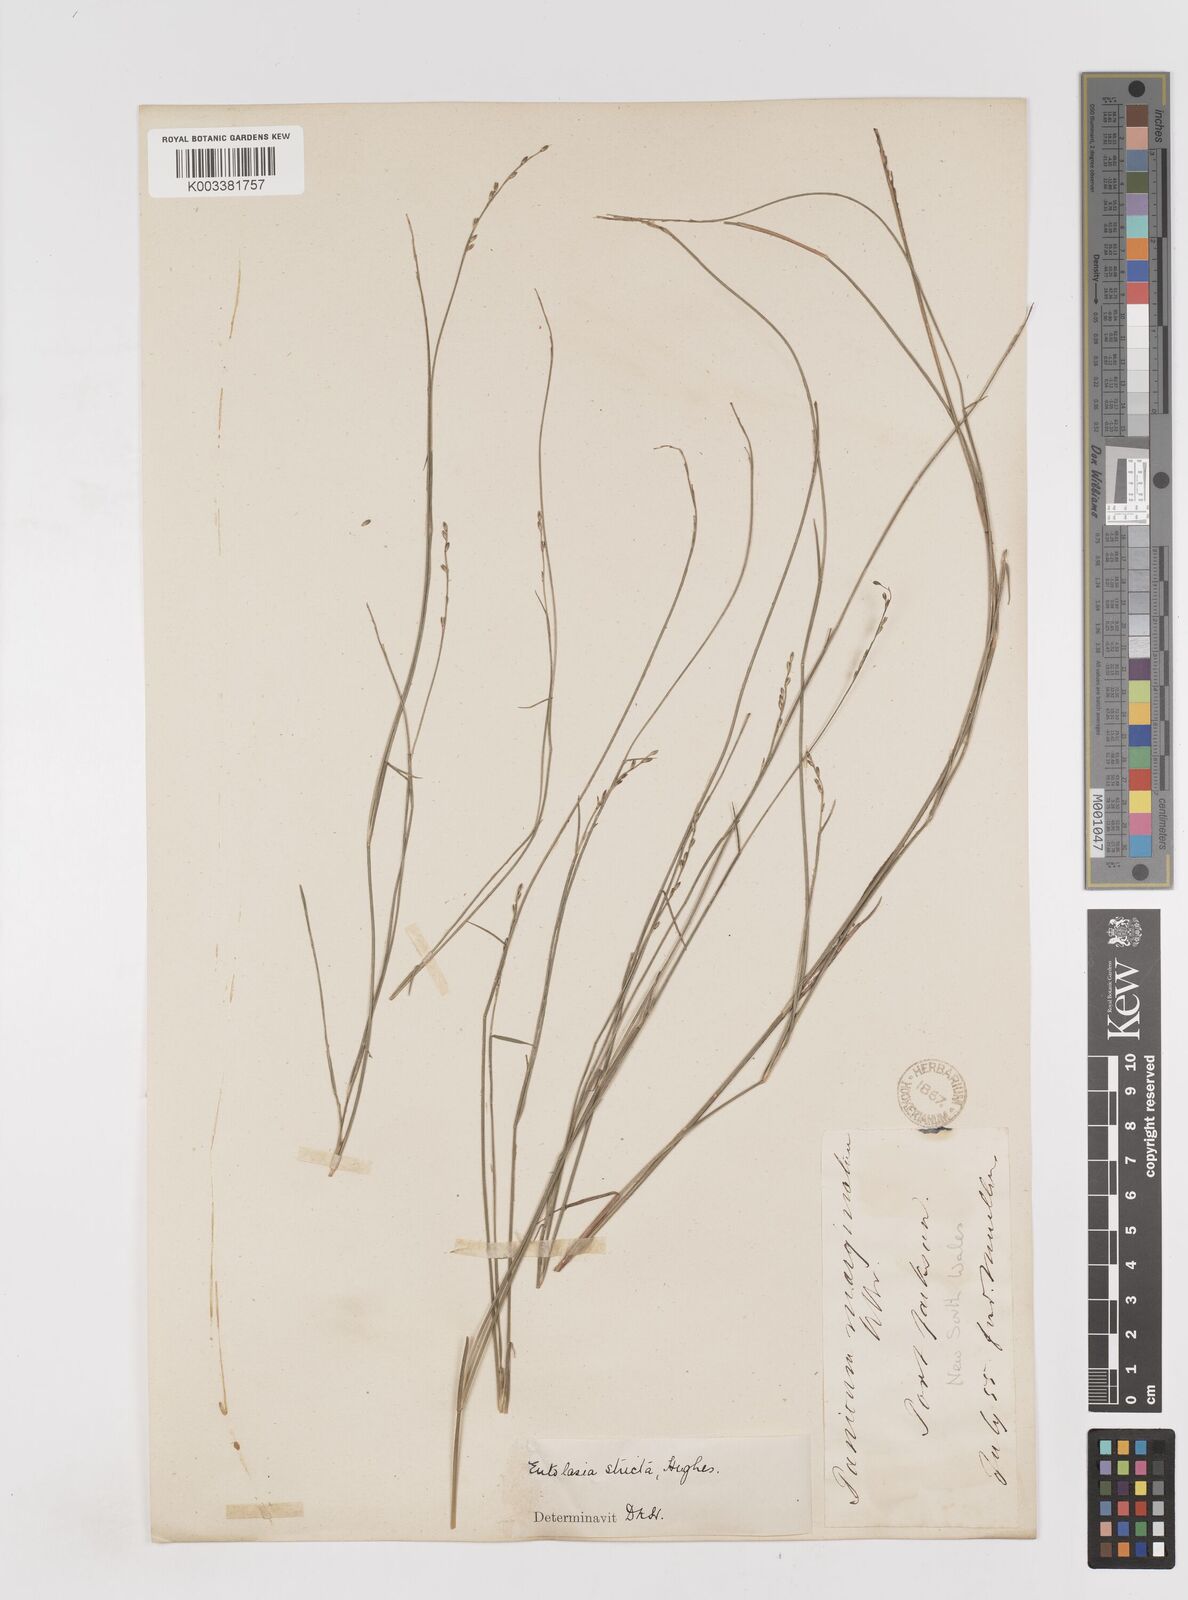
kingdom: Plantae
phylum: Tracheophyta
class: Liliopsida
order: Poales
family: Poaceae
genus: Entolasia
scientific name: Entolasia stricta
